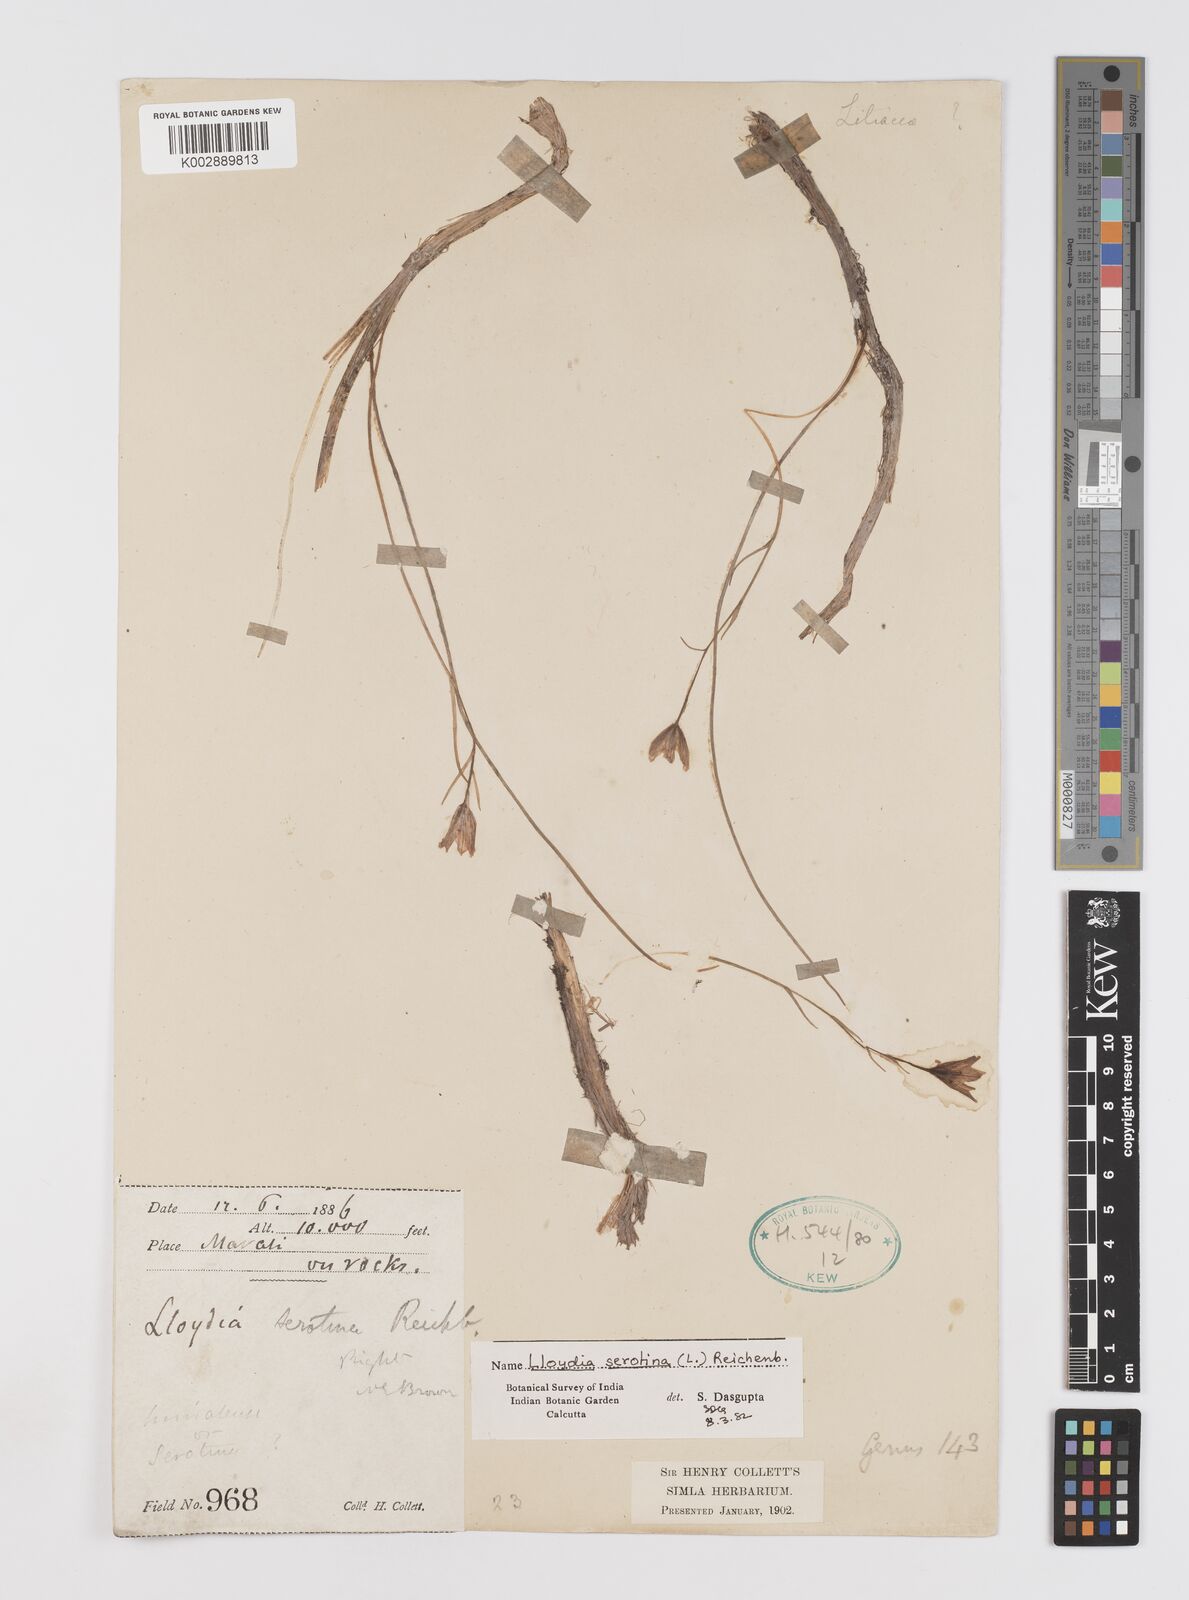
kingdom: Plantae
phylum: Tracheophyta
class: Liliopsida
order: Liliales
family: Liliaceae
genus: Gagea
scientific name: Gagea serotina
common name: Snowdon lily
